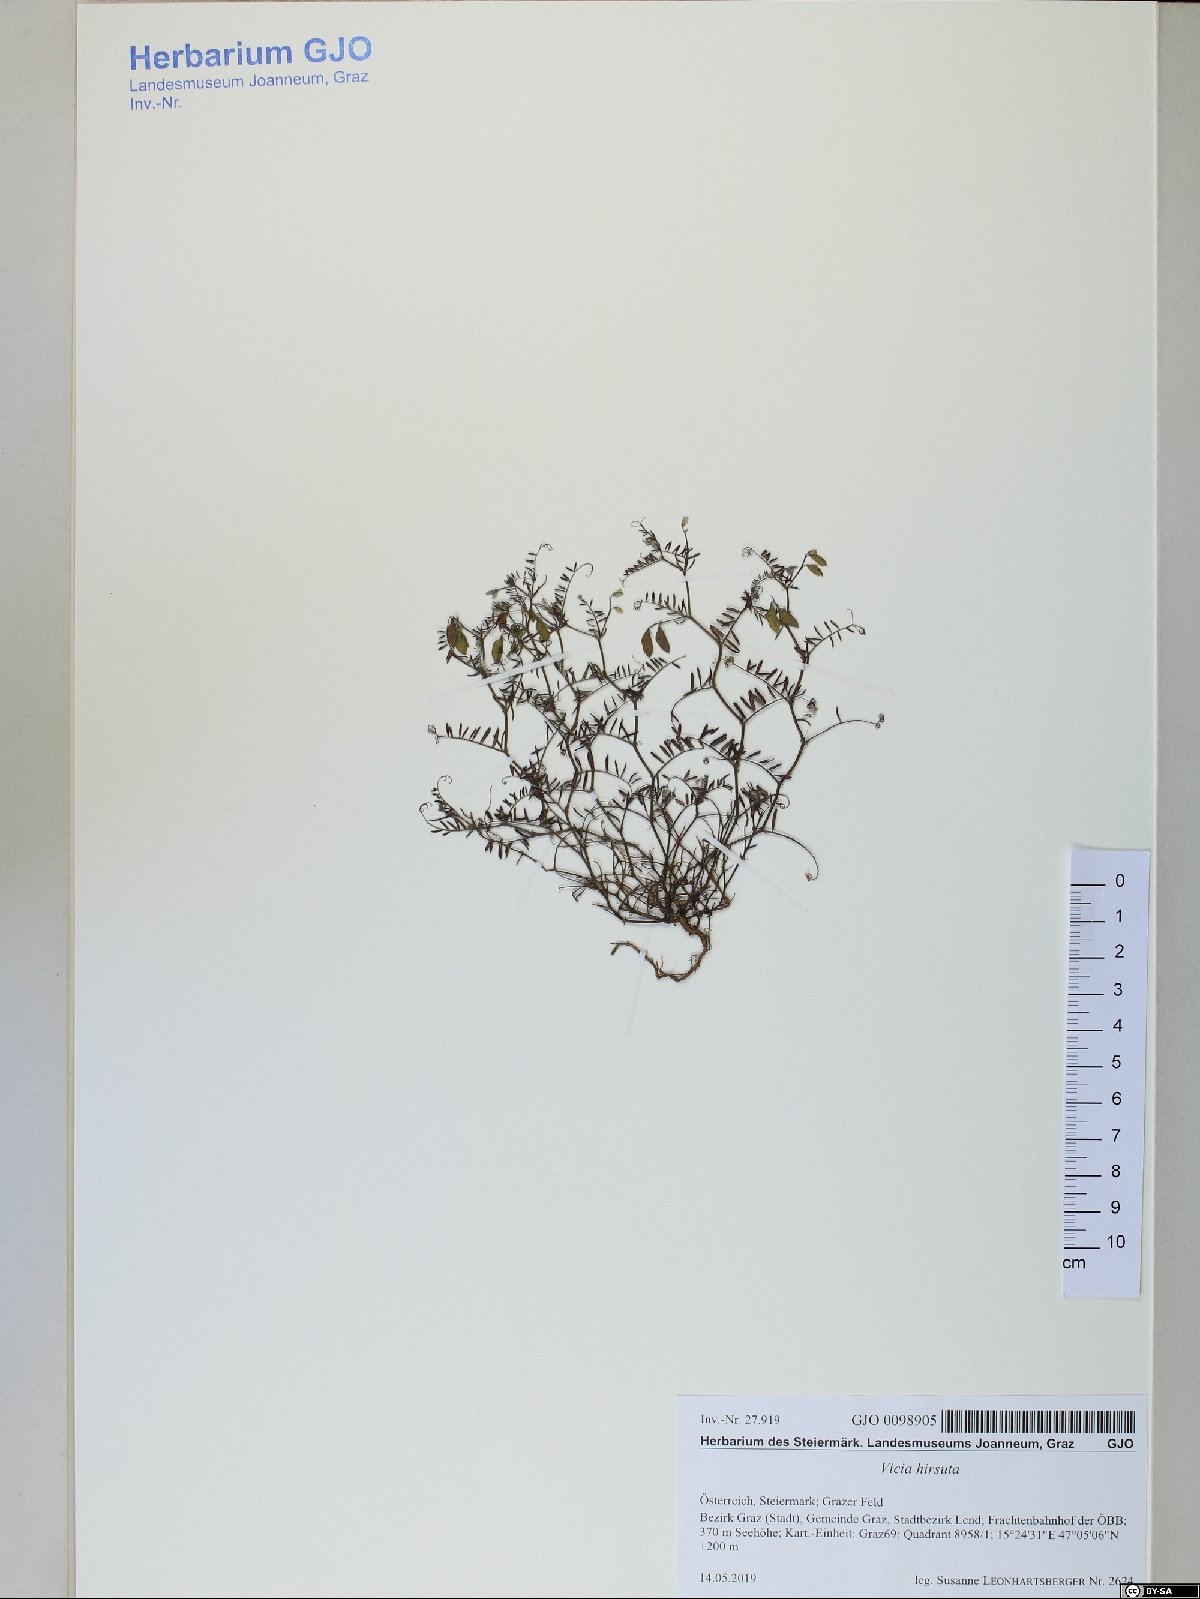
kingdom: Plantae
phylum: Tracheophyta
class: Magnoliopsida
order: Fabales
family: Fabaceae
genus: Vicia
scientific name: Vicia hirsuta
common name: Tiny vetch
